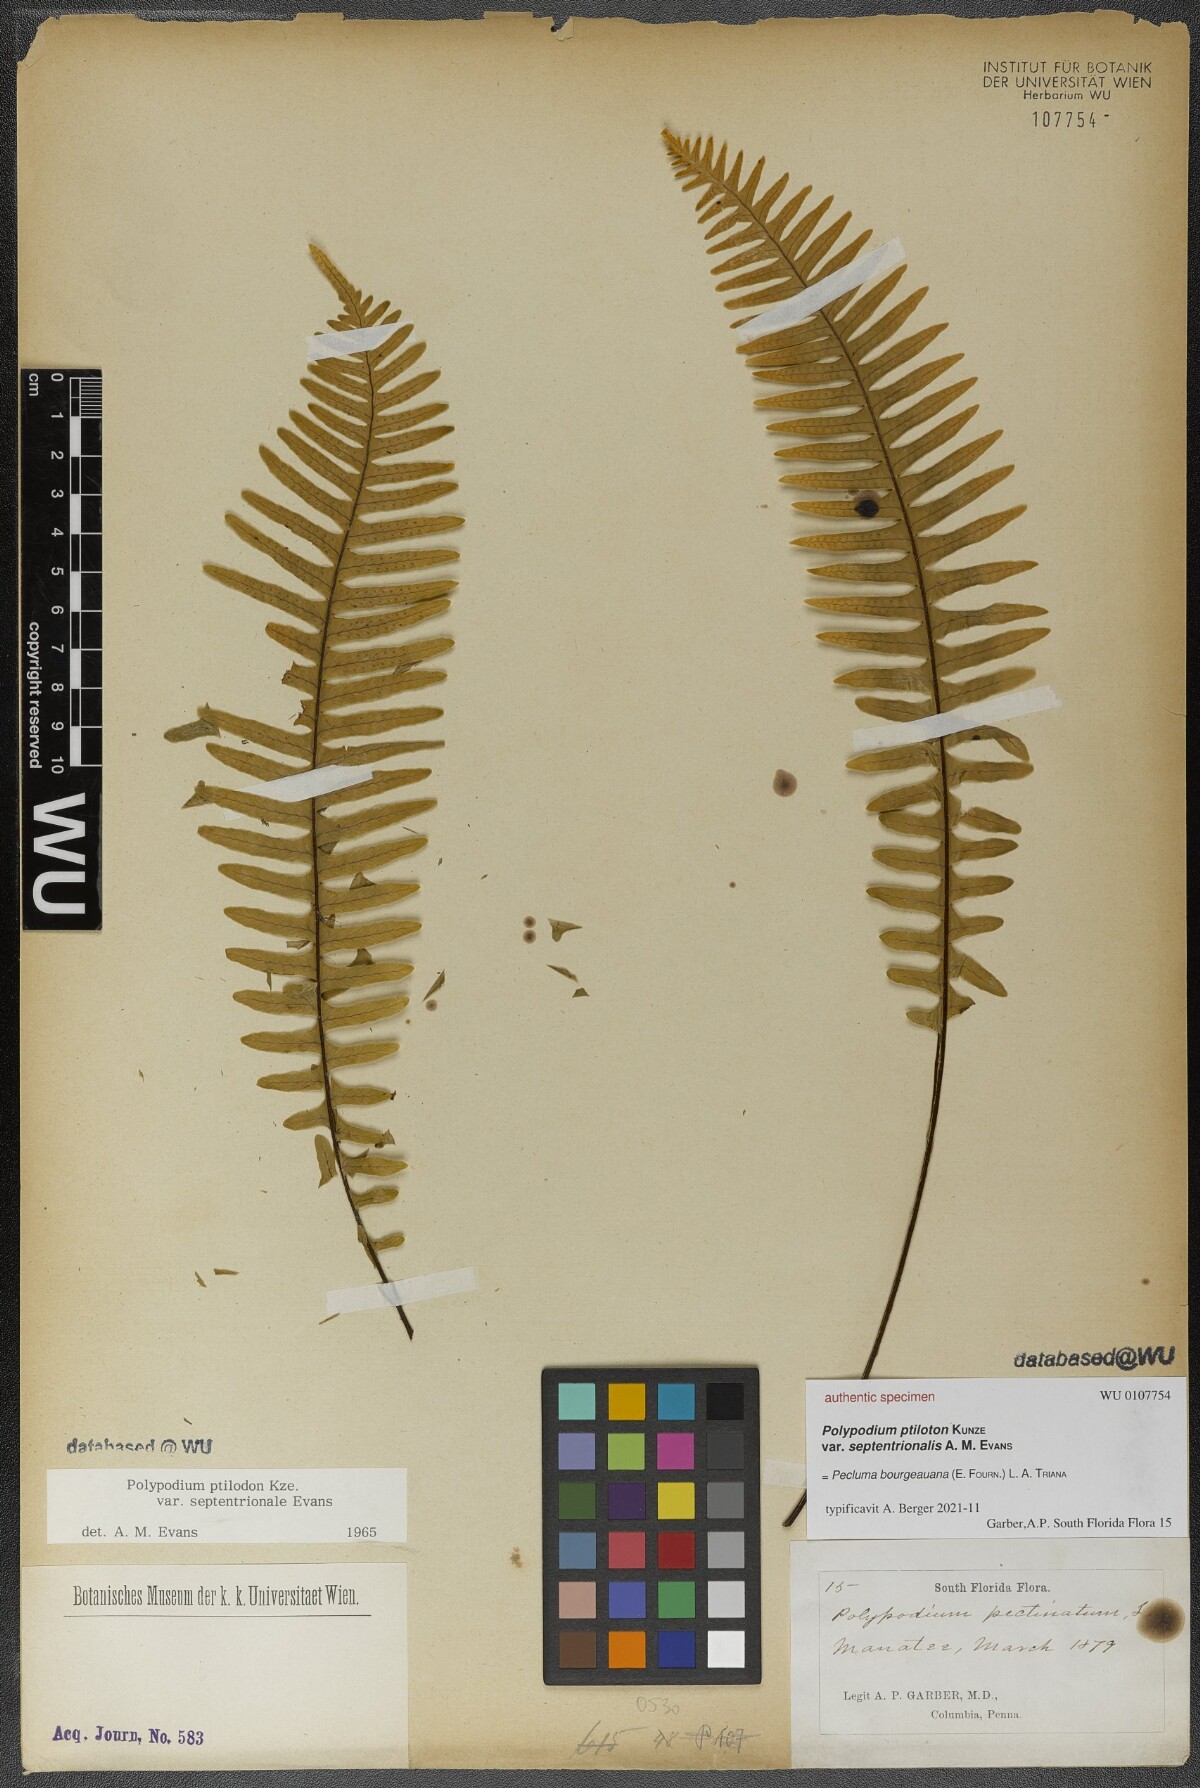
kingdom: Plantae
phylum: Tracheophyta
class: Polypodiopsida
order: Polypodiales
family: Polypodiaceae
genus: Pecluma
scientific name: Pecluma bourgeauana
